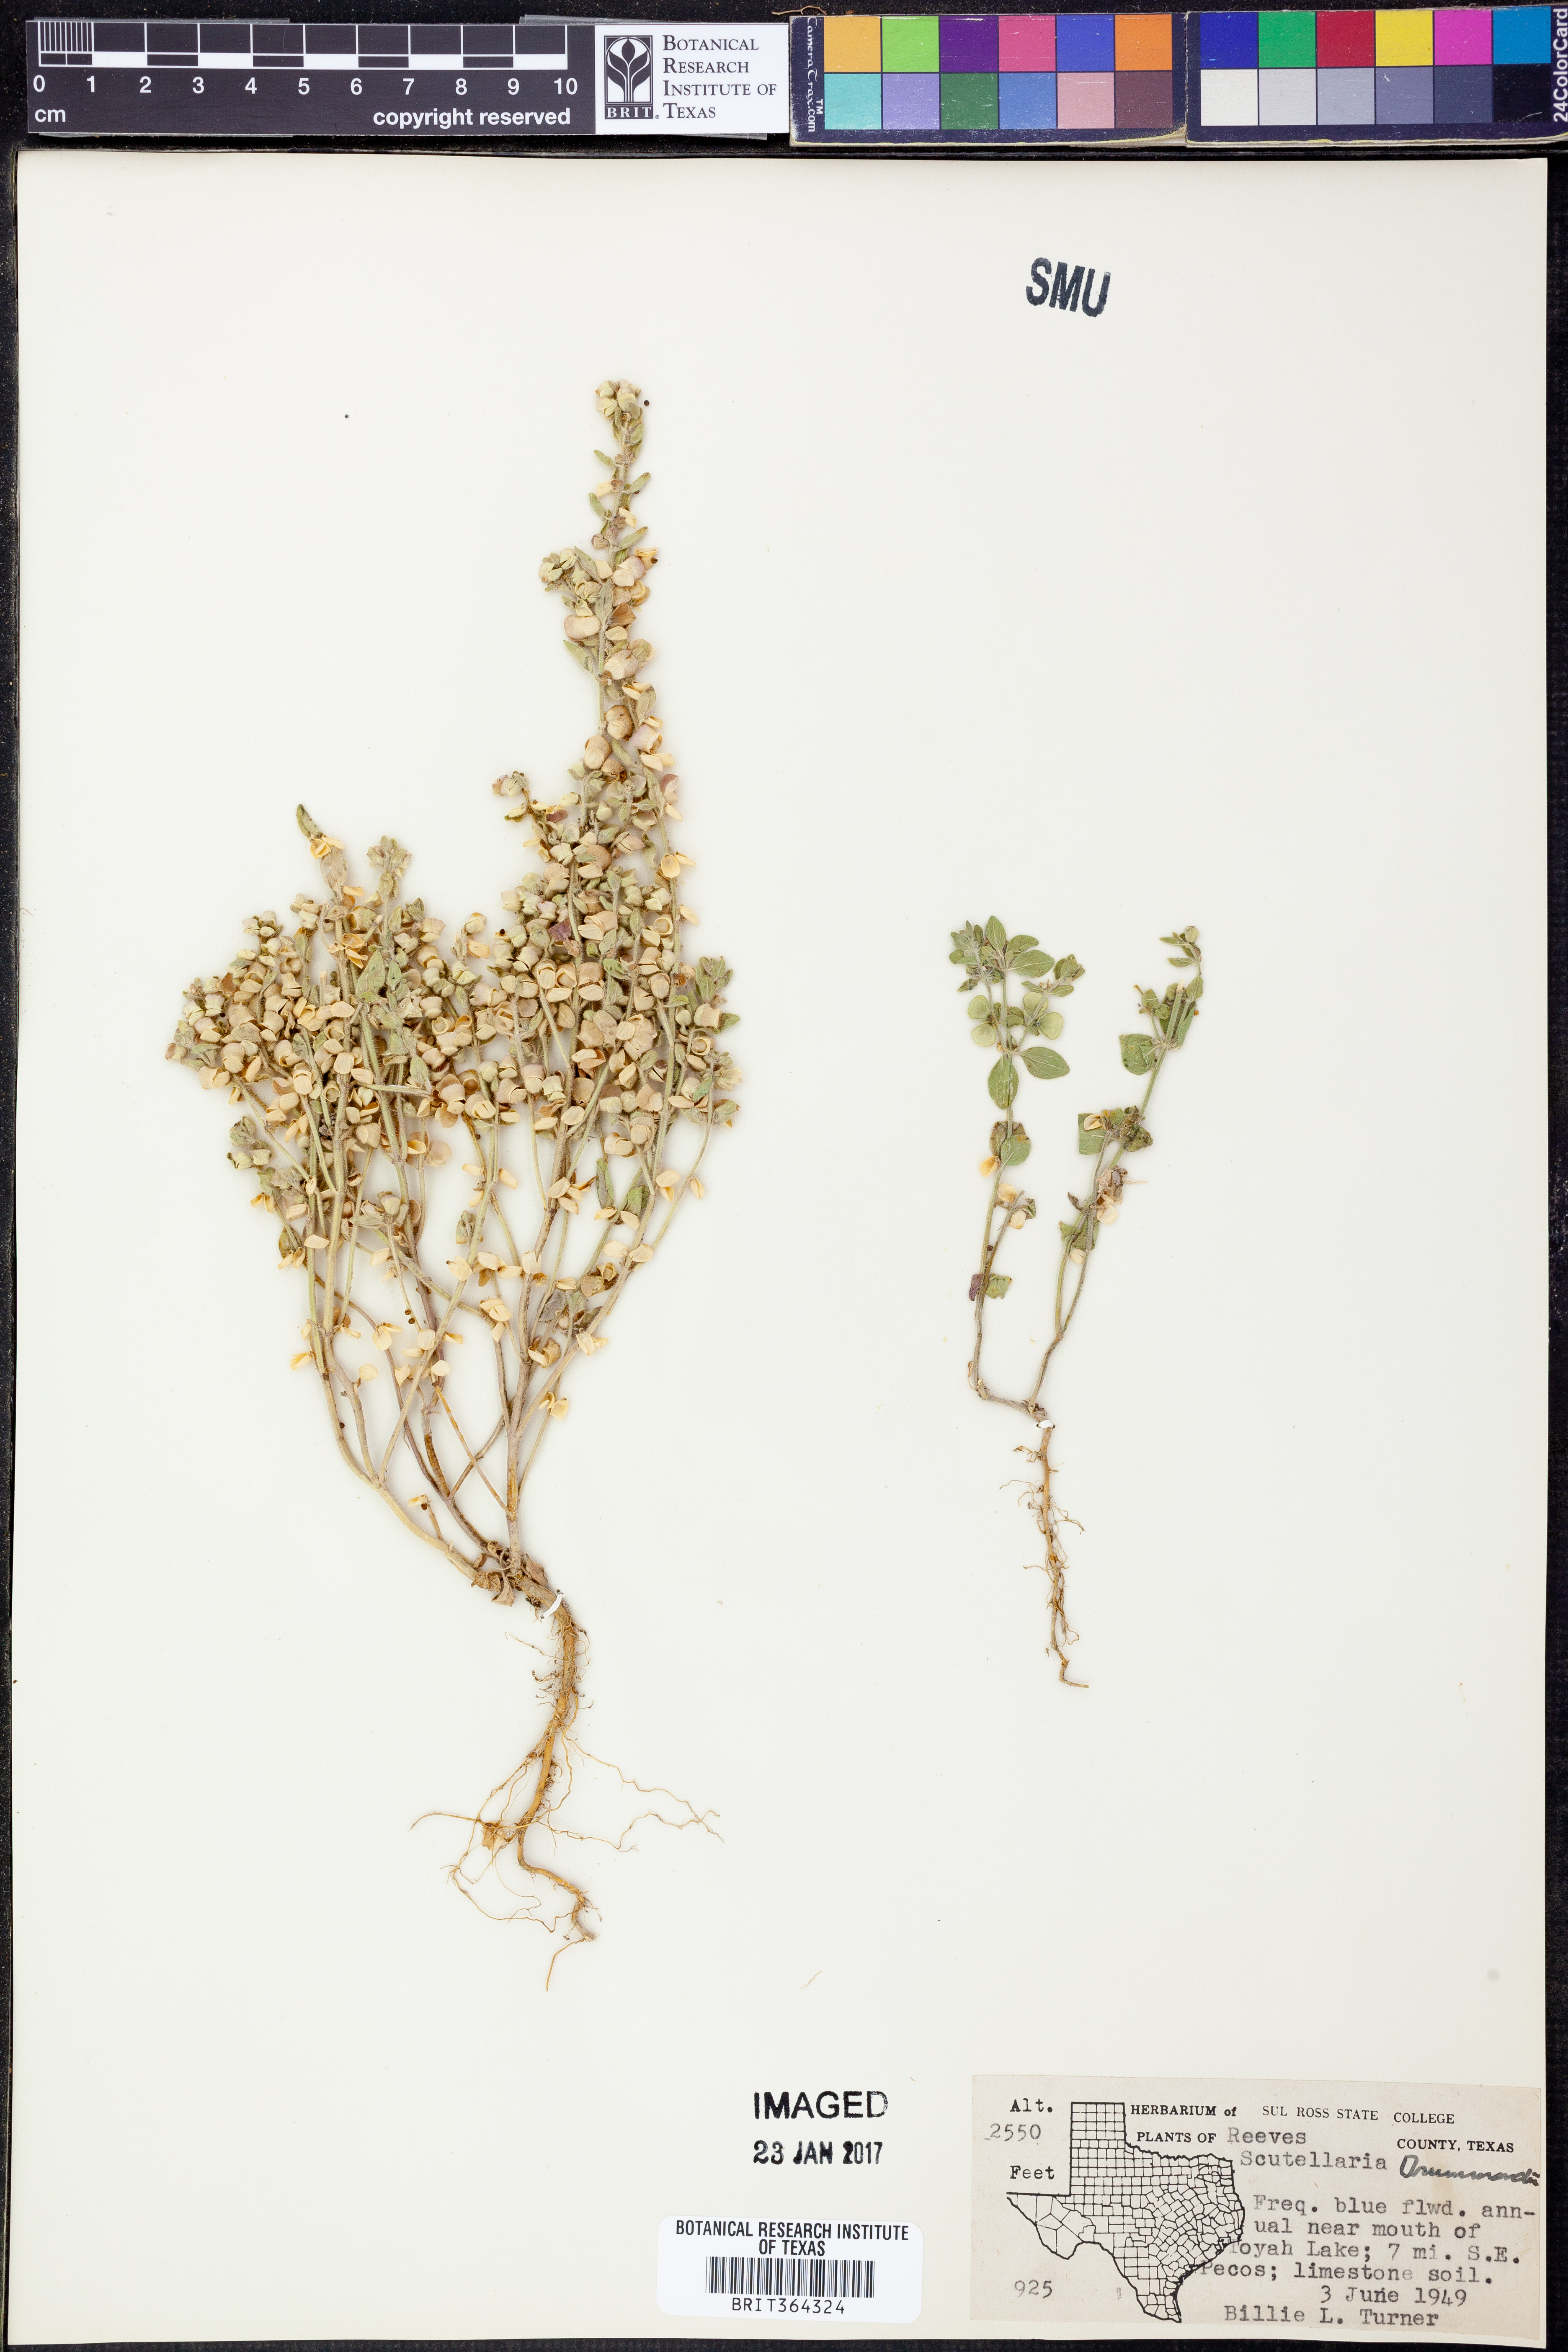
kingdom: Plantae
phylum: Tracheophyta
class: Magnoliopsida
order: Lamiales
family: Lamiaceae
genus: Scutellaria
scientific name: Scutellaria drummondii
